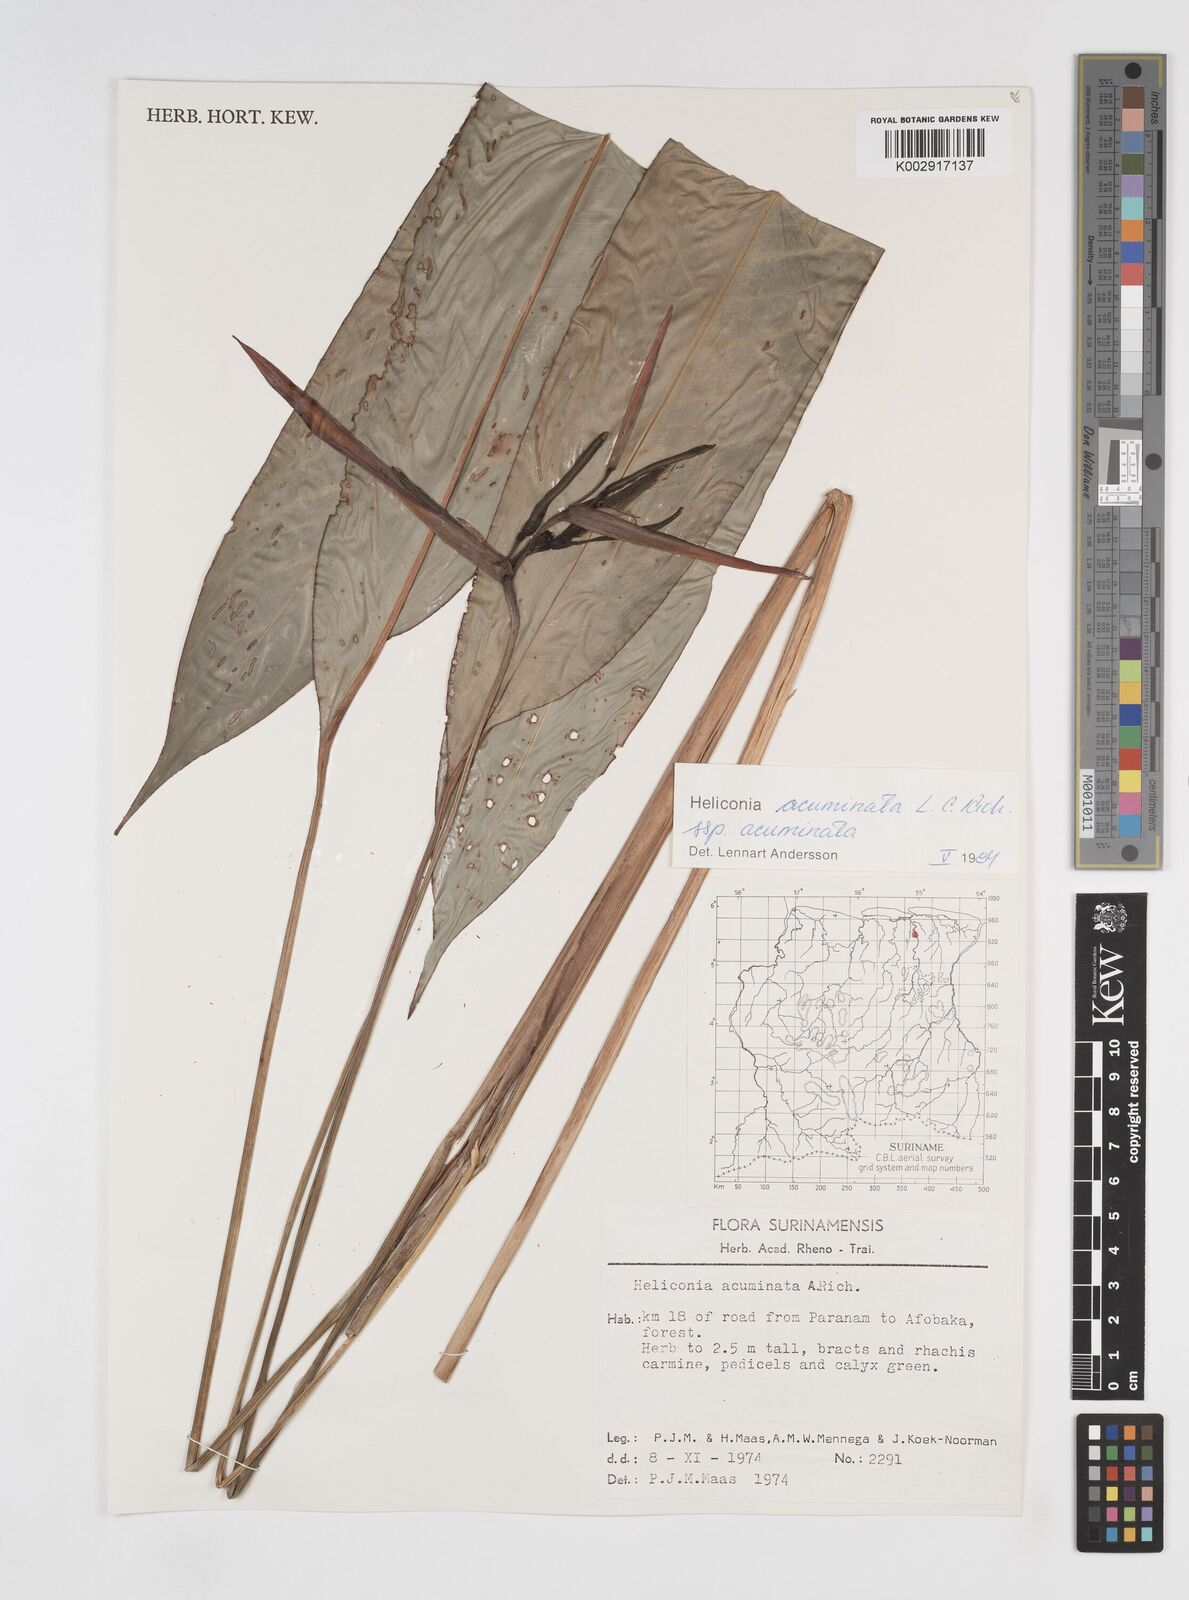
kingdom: Plantae
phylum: Tracheophyta
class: Liliopsida
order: Zingiberales
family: Heliconiaceae
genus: Heliconia
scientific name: Heliconia acuminata
